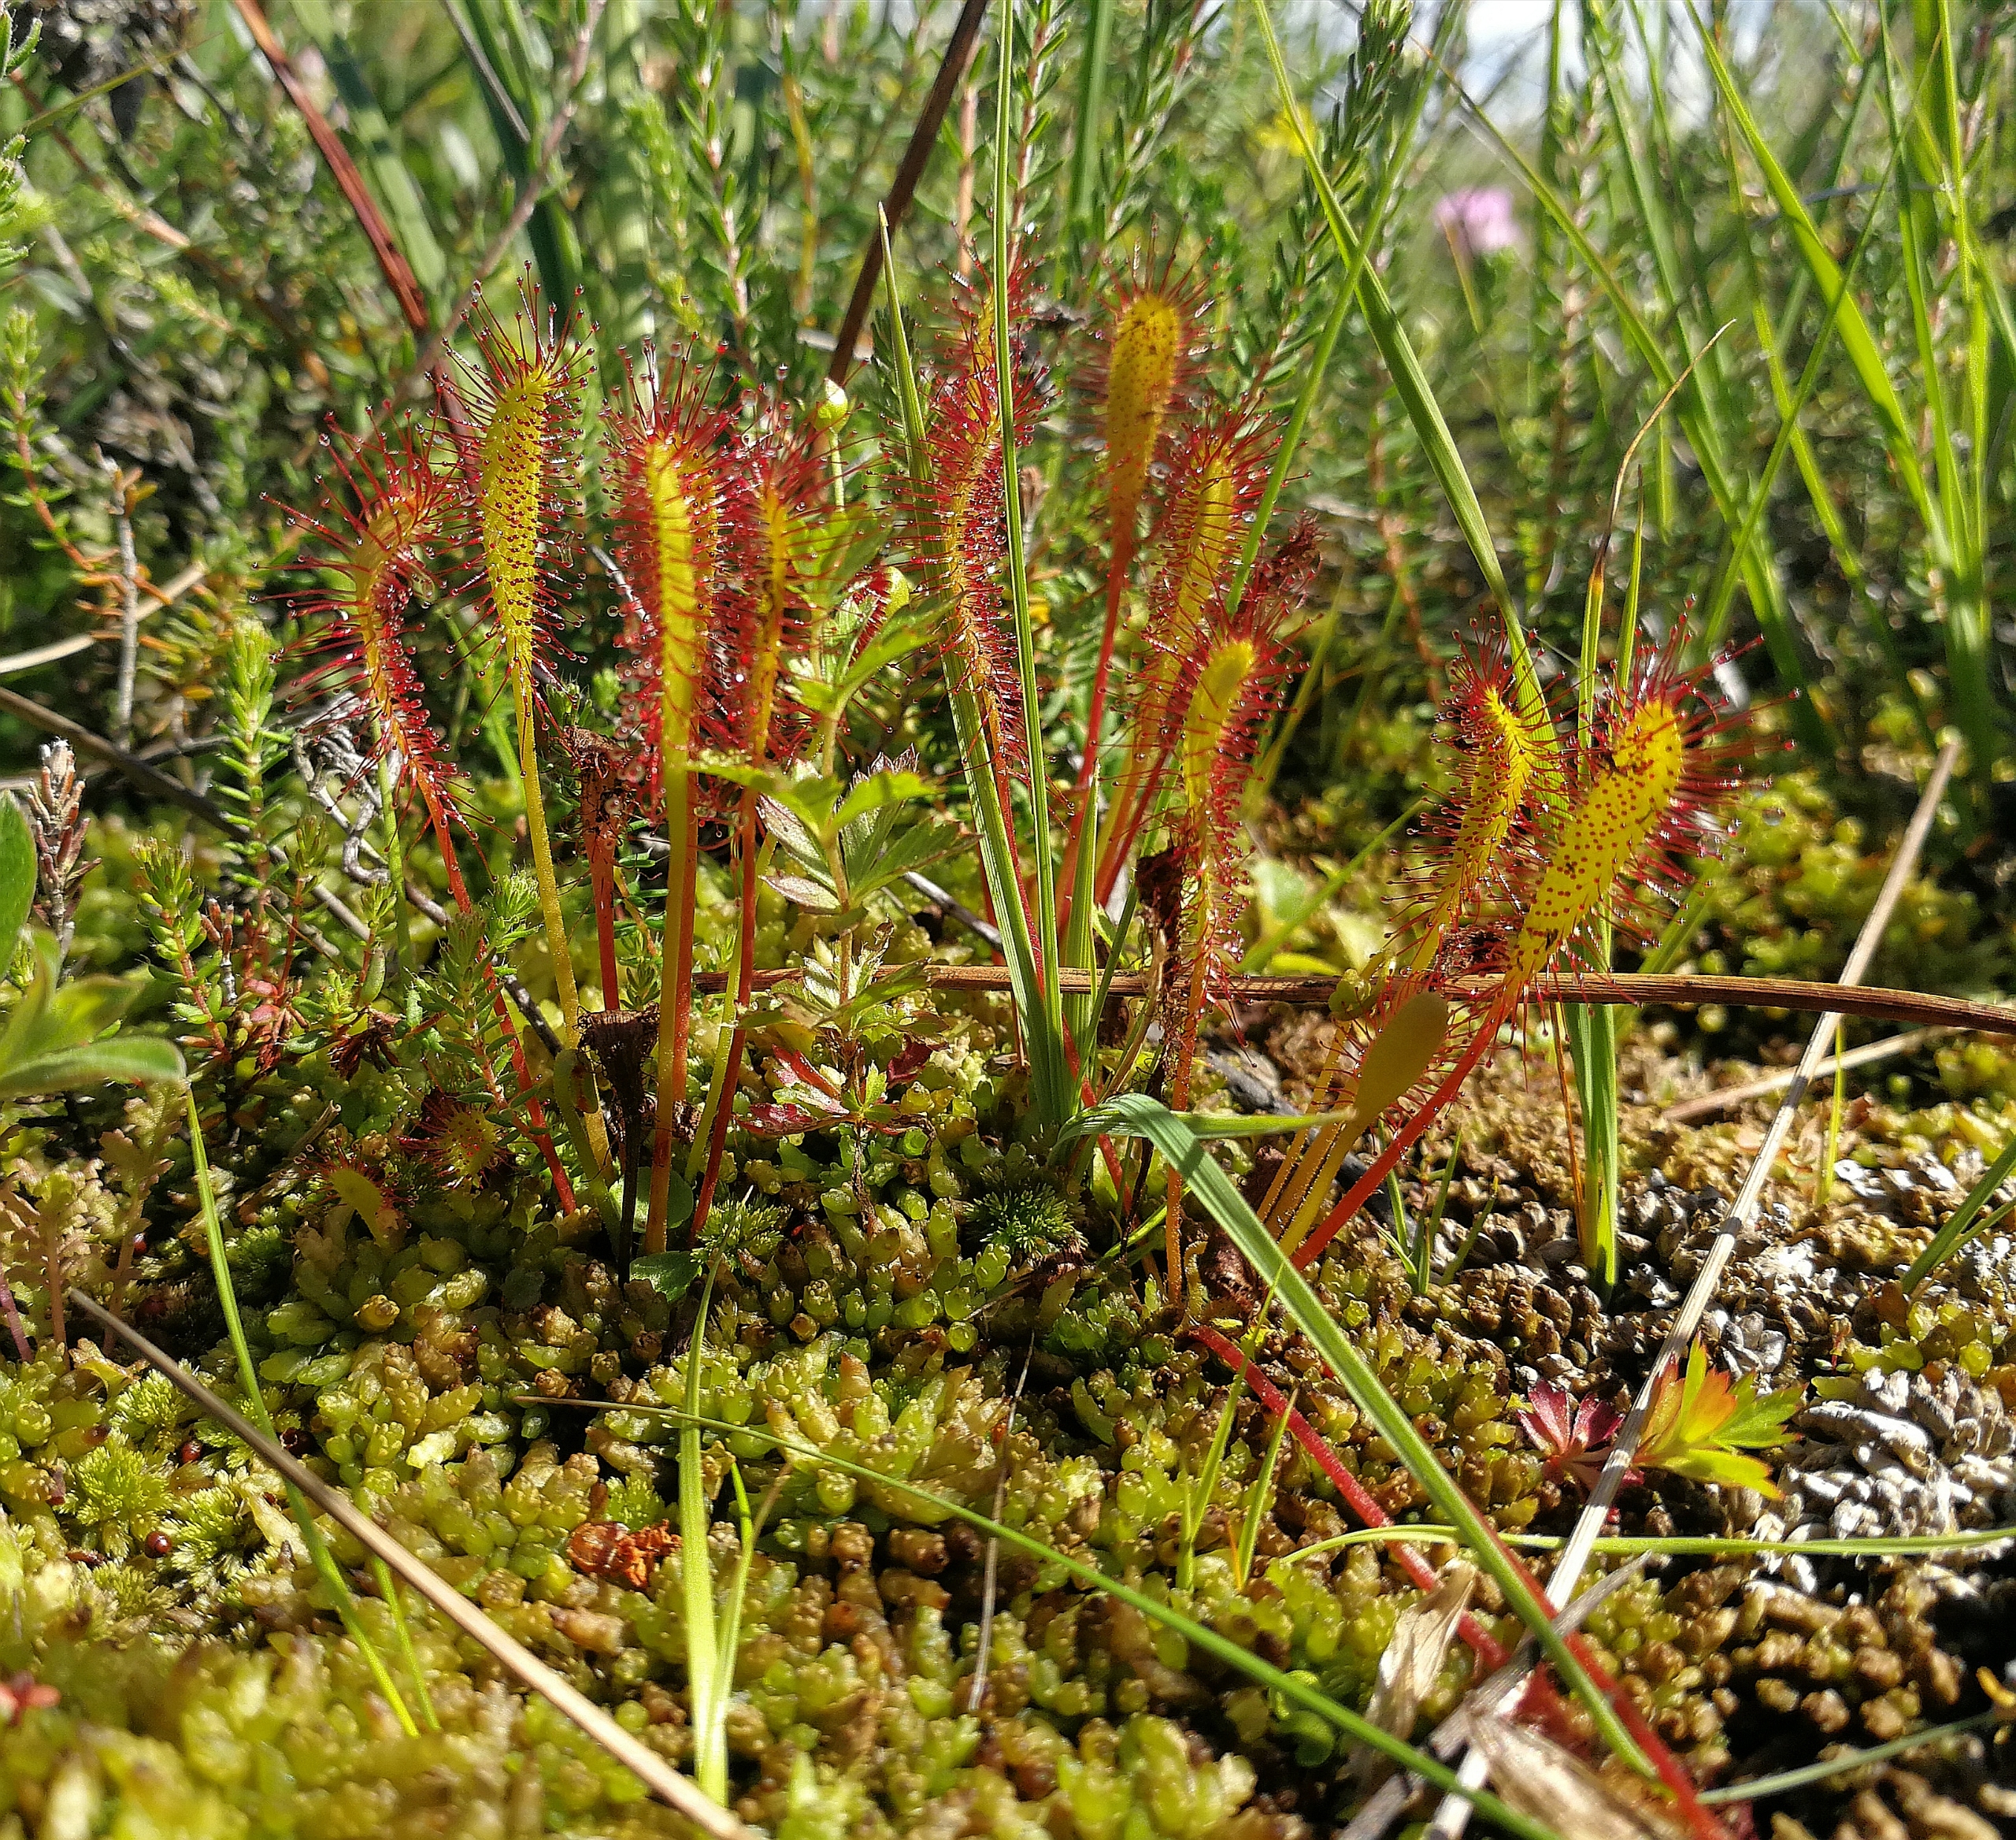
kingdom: Plantae
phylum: Tracheophyta
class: Magnoliopsida
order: Caryophyllales
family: Droseraceae
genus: Drosera
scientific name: Drosera anglica
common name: Langbladet soldug
